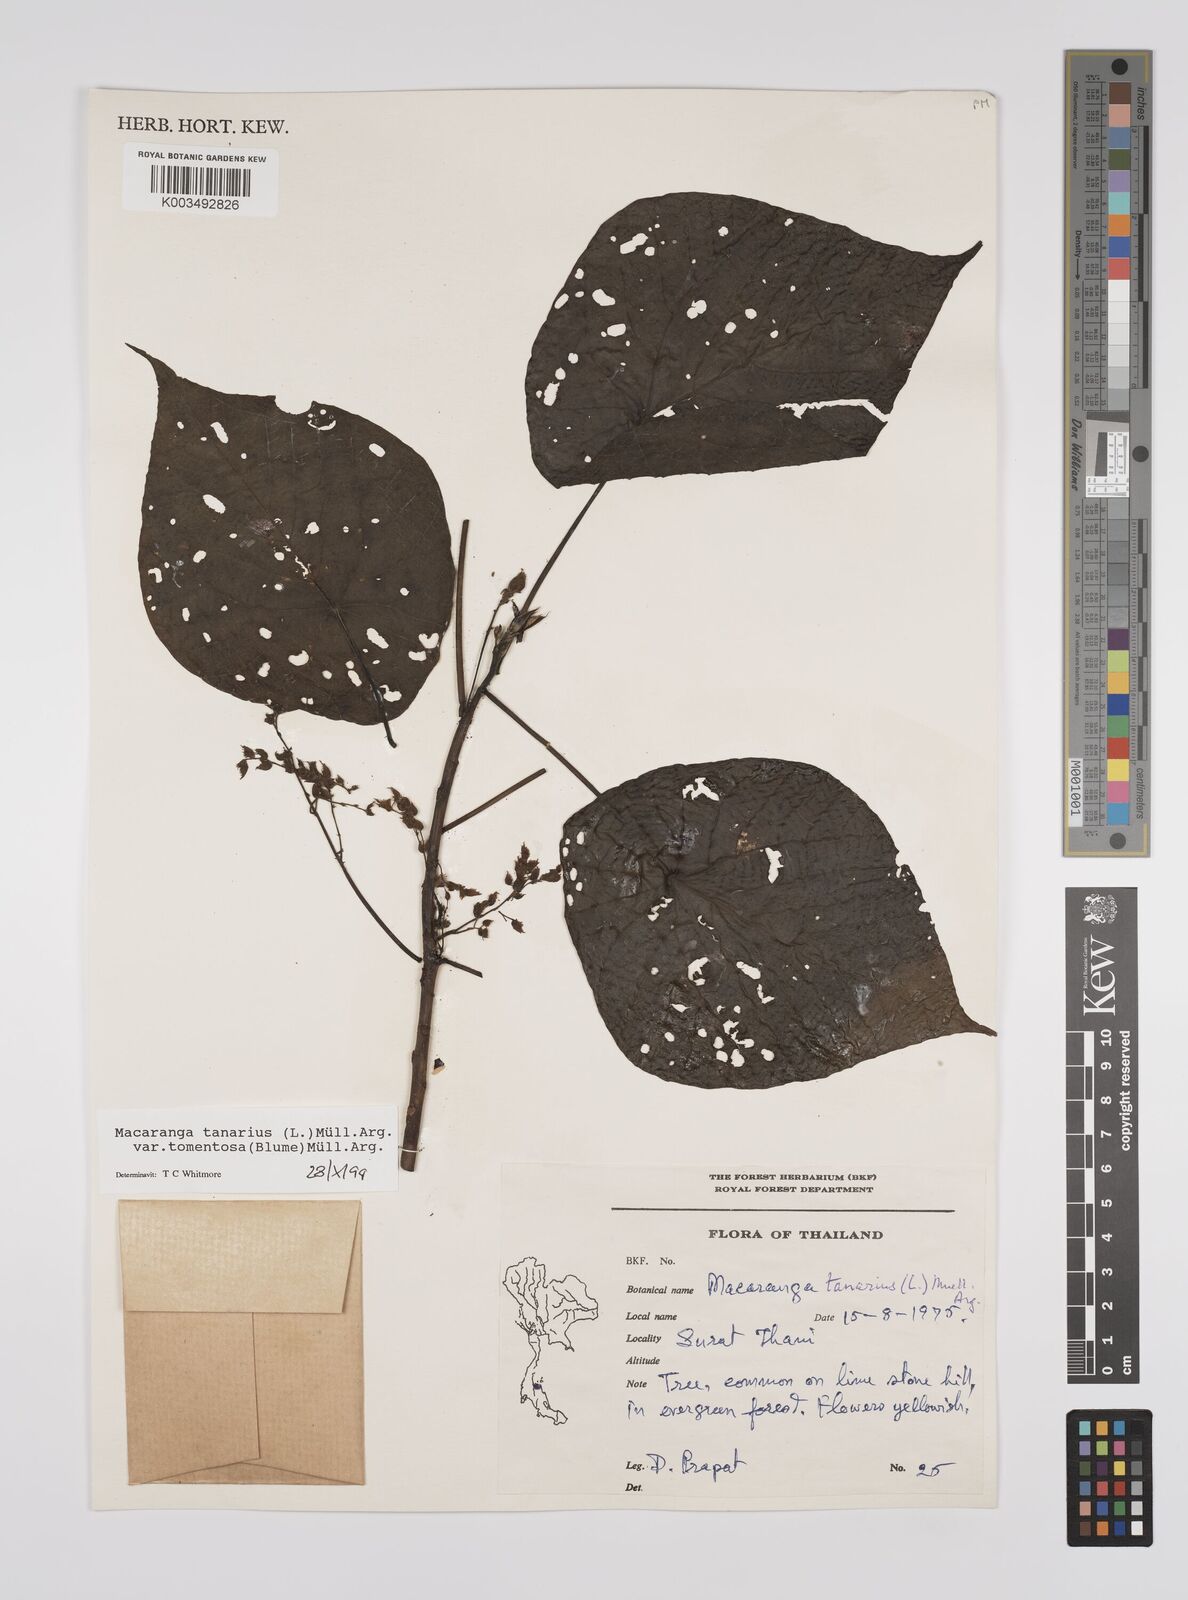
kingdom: Plantae
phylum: Tracheophyta
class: Magnoliopsida
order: Malpighiales
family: Euphorbiaceae
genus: Macaranga
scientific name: Macaranga tanarius
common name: Parasol leaf tree
